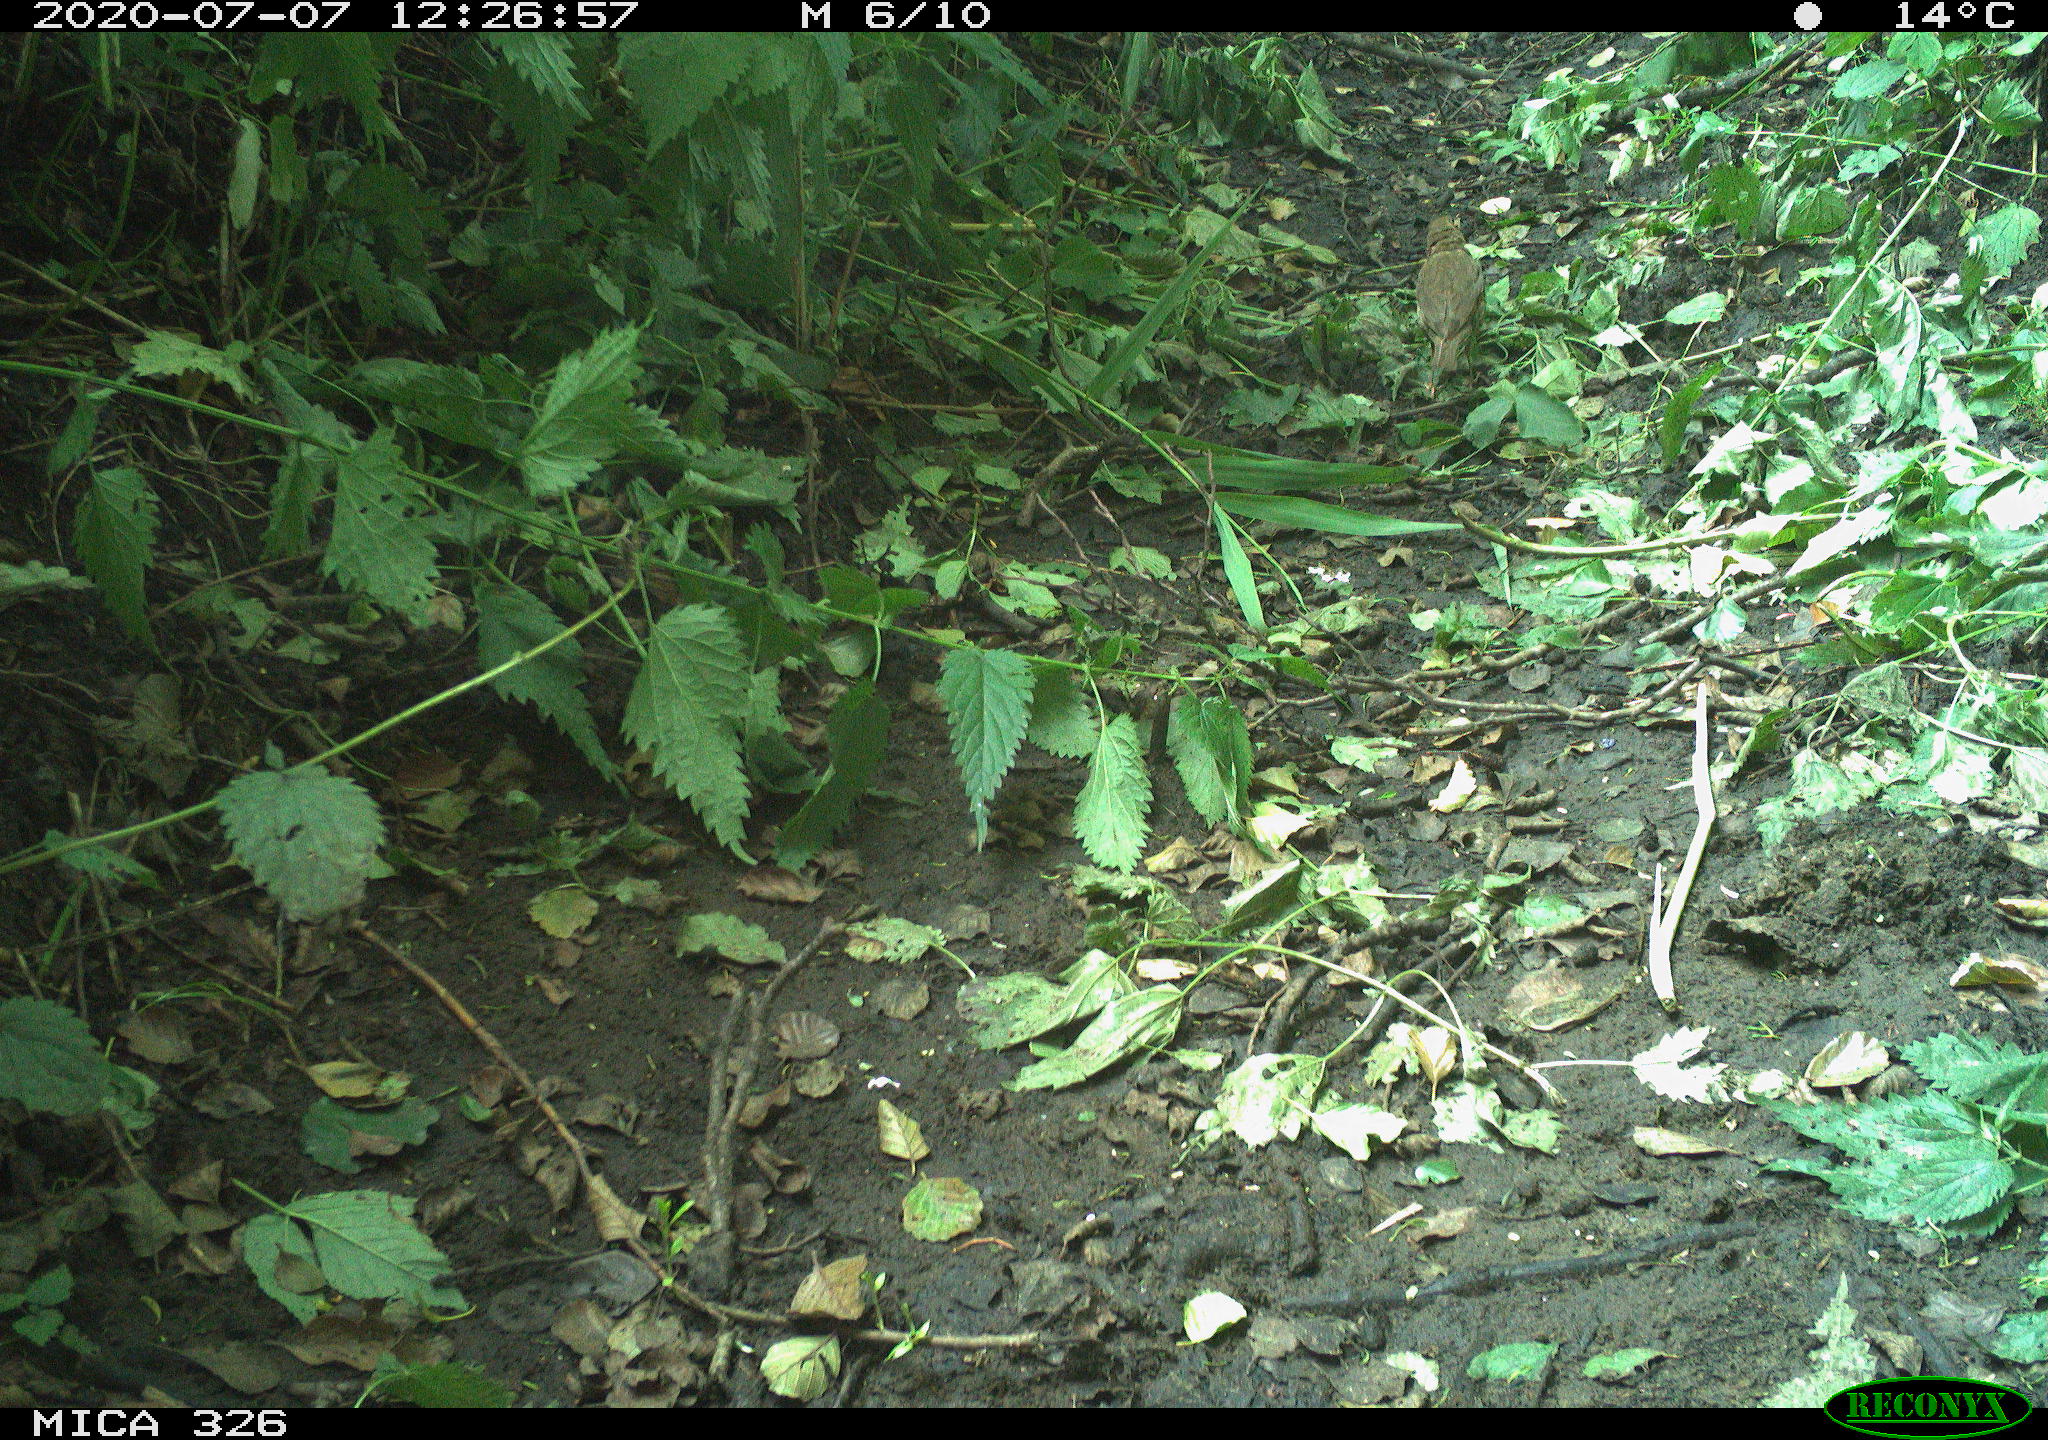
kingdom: Animalia
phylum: Chordata
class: Aves
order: Passeriformes
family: Turdidae
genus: Turdus
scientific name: Turdus philomelos
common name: Song thrush
